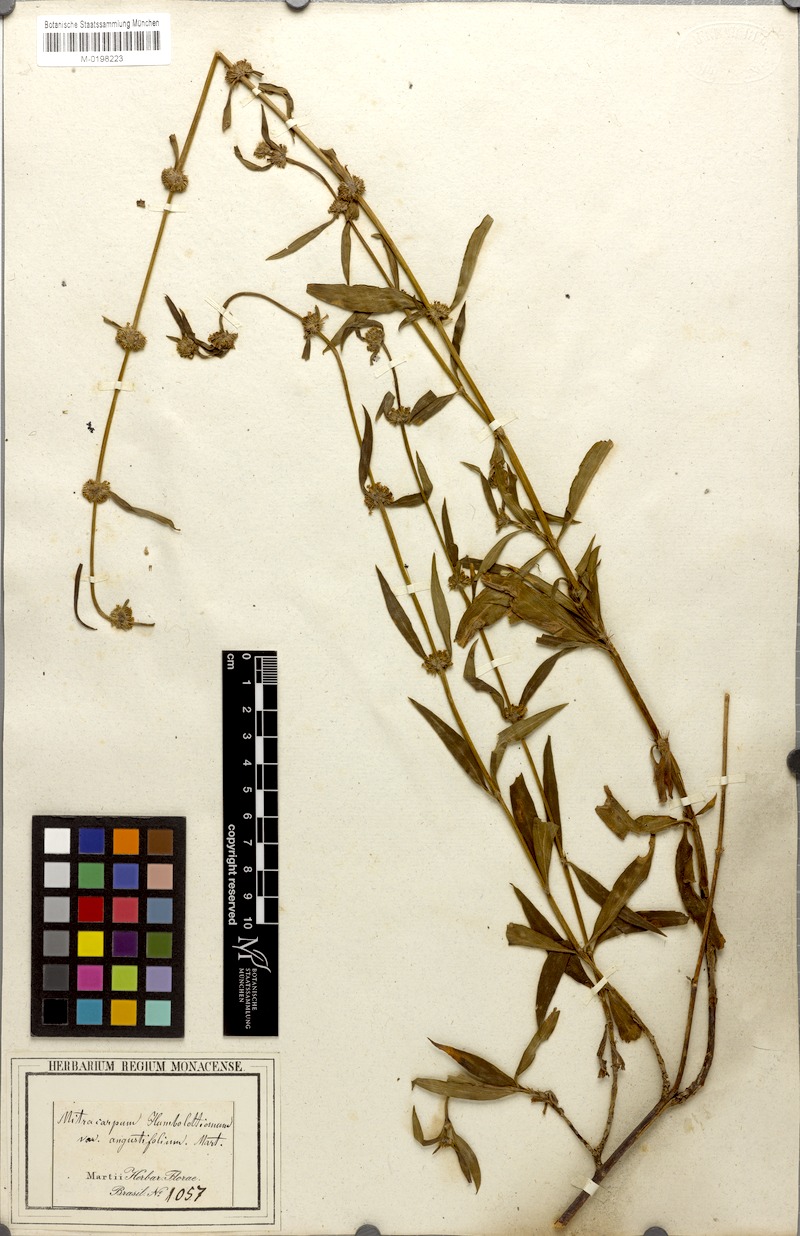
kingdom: Plantae
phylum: Tracheophyta
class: Magnoliopsida
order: Gentianales
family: Rubiaceae
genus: Mitracarpus
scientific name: Mitracarpus frigidus
